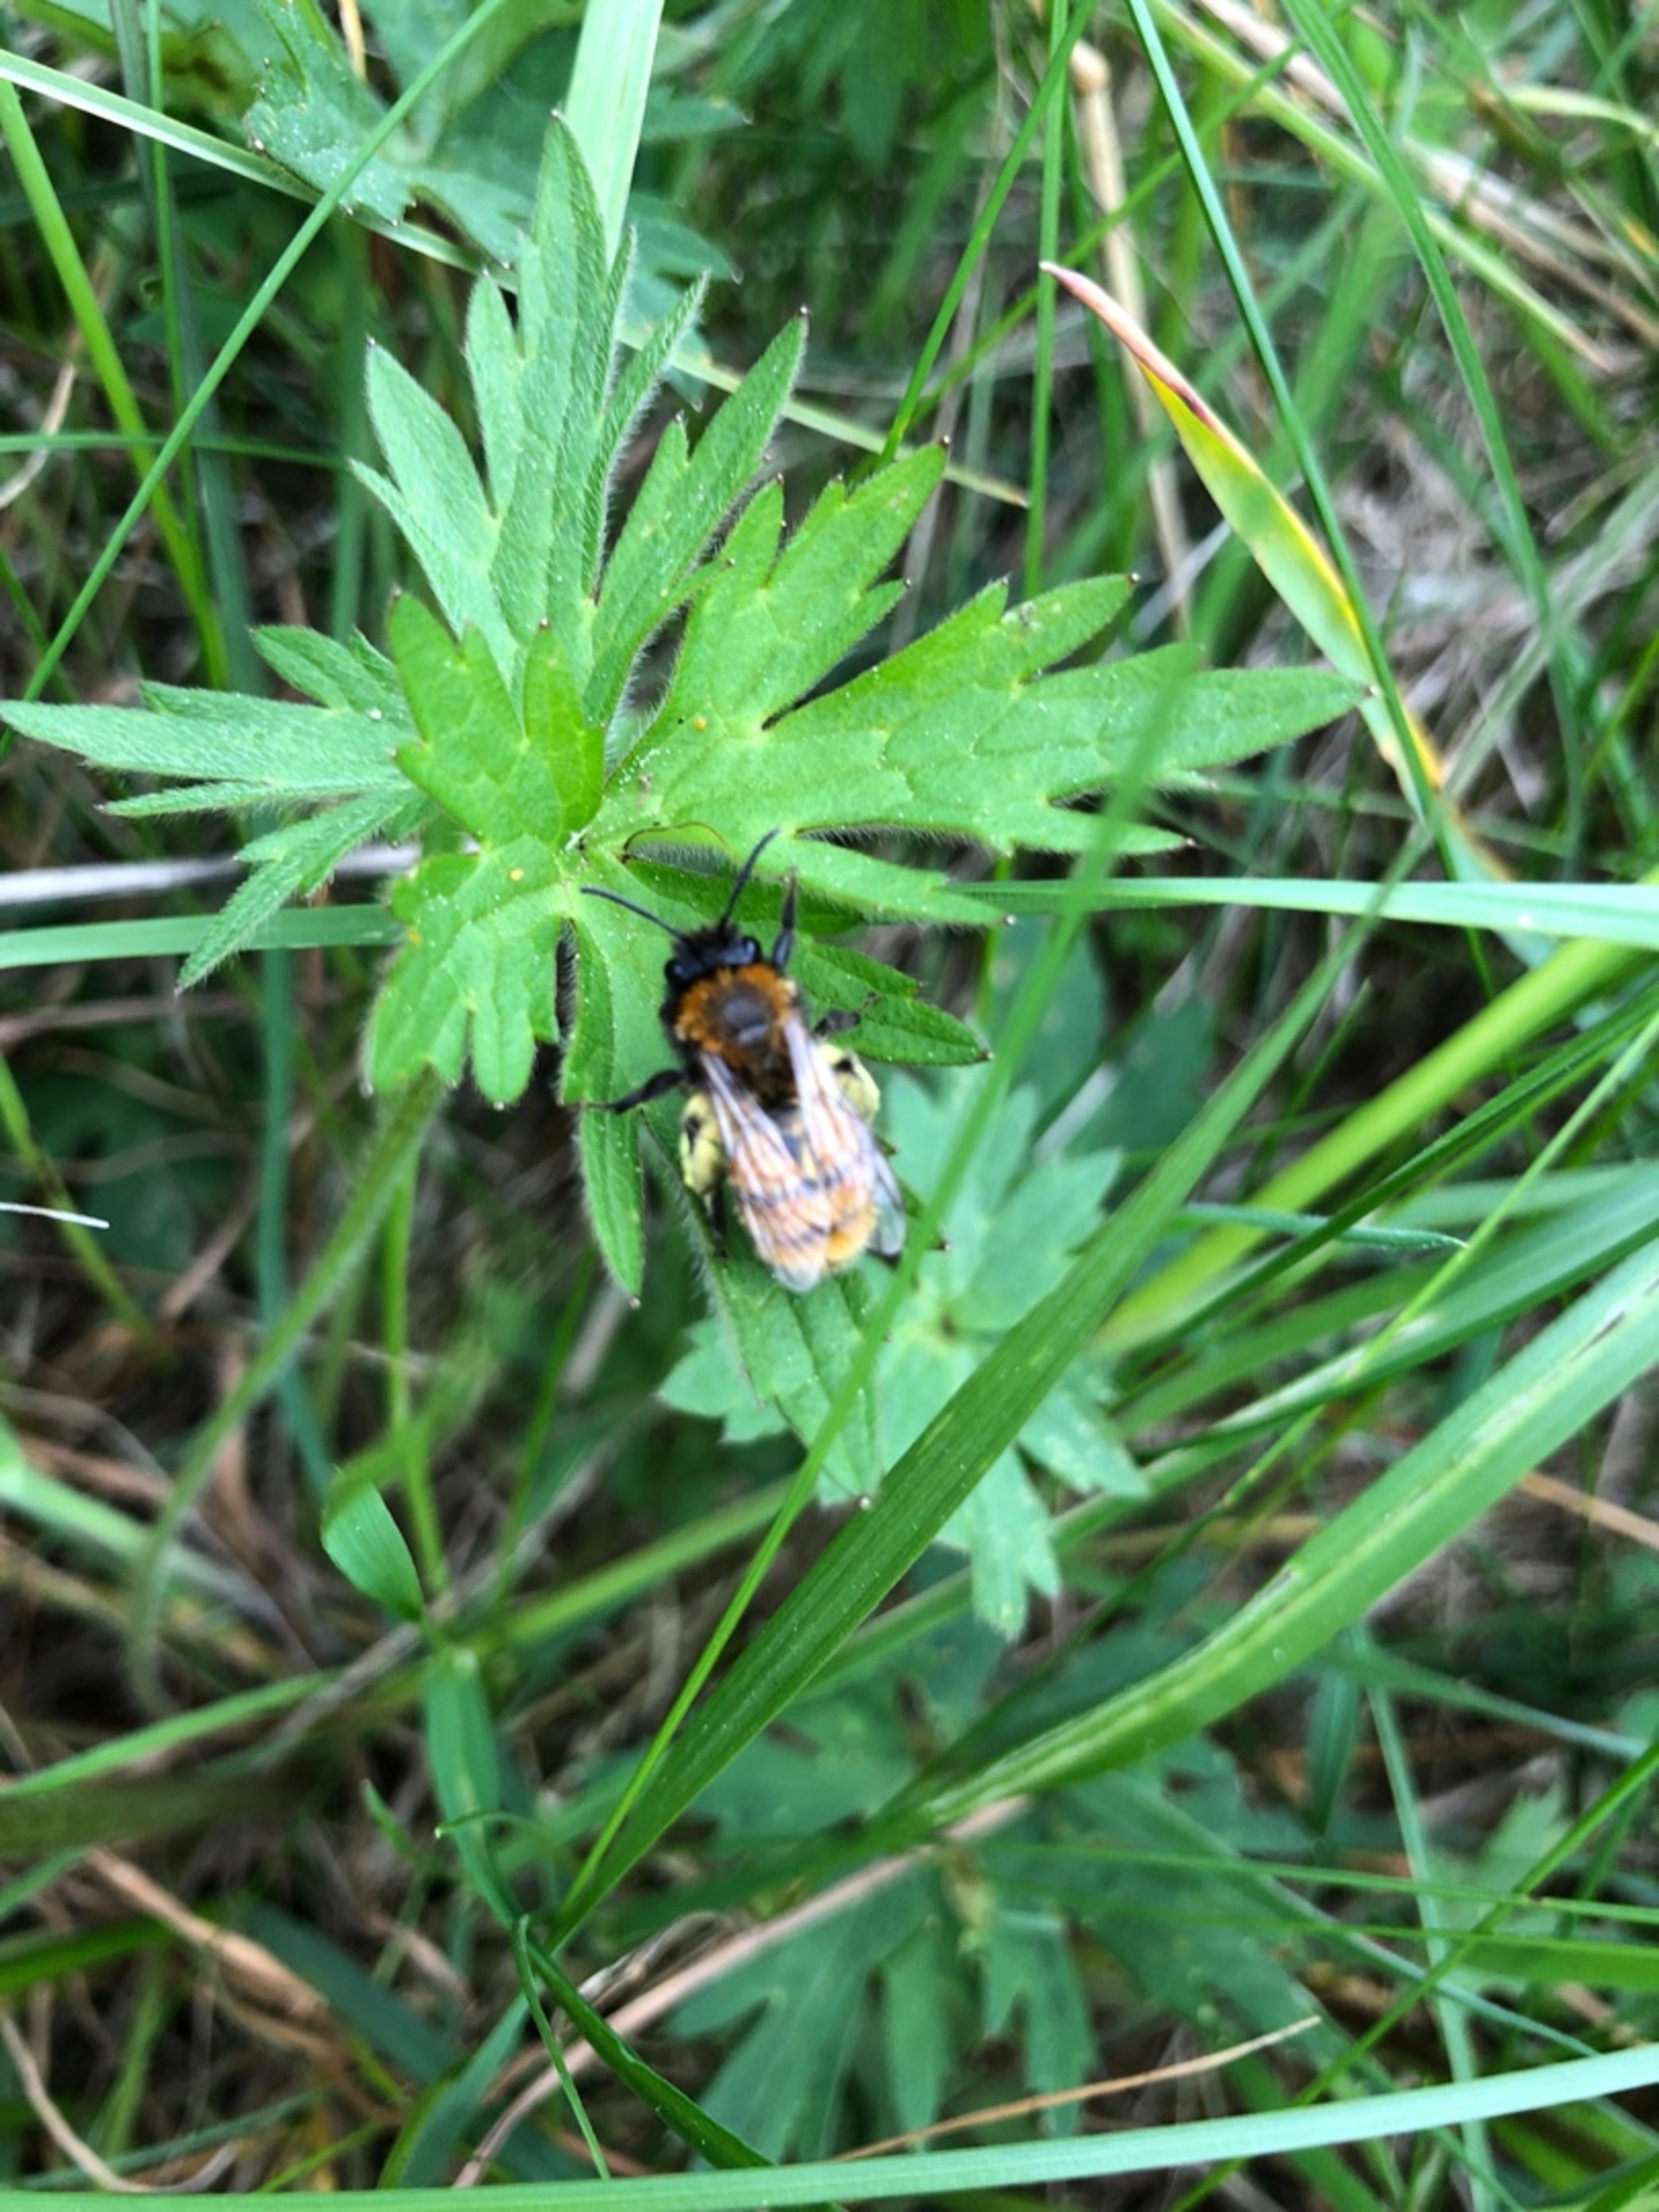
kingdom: Animalia
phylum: Arthropoda
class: Insecta
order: Hymenoptera
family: Andrenidae
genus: Andrena
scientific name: Andrena fulva
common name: Rødpelset jordbi
